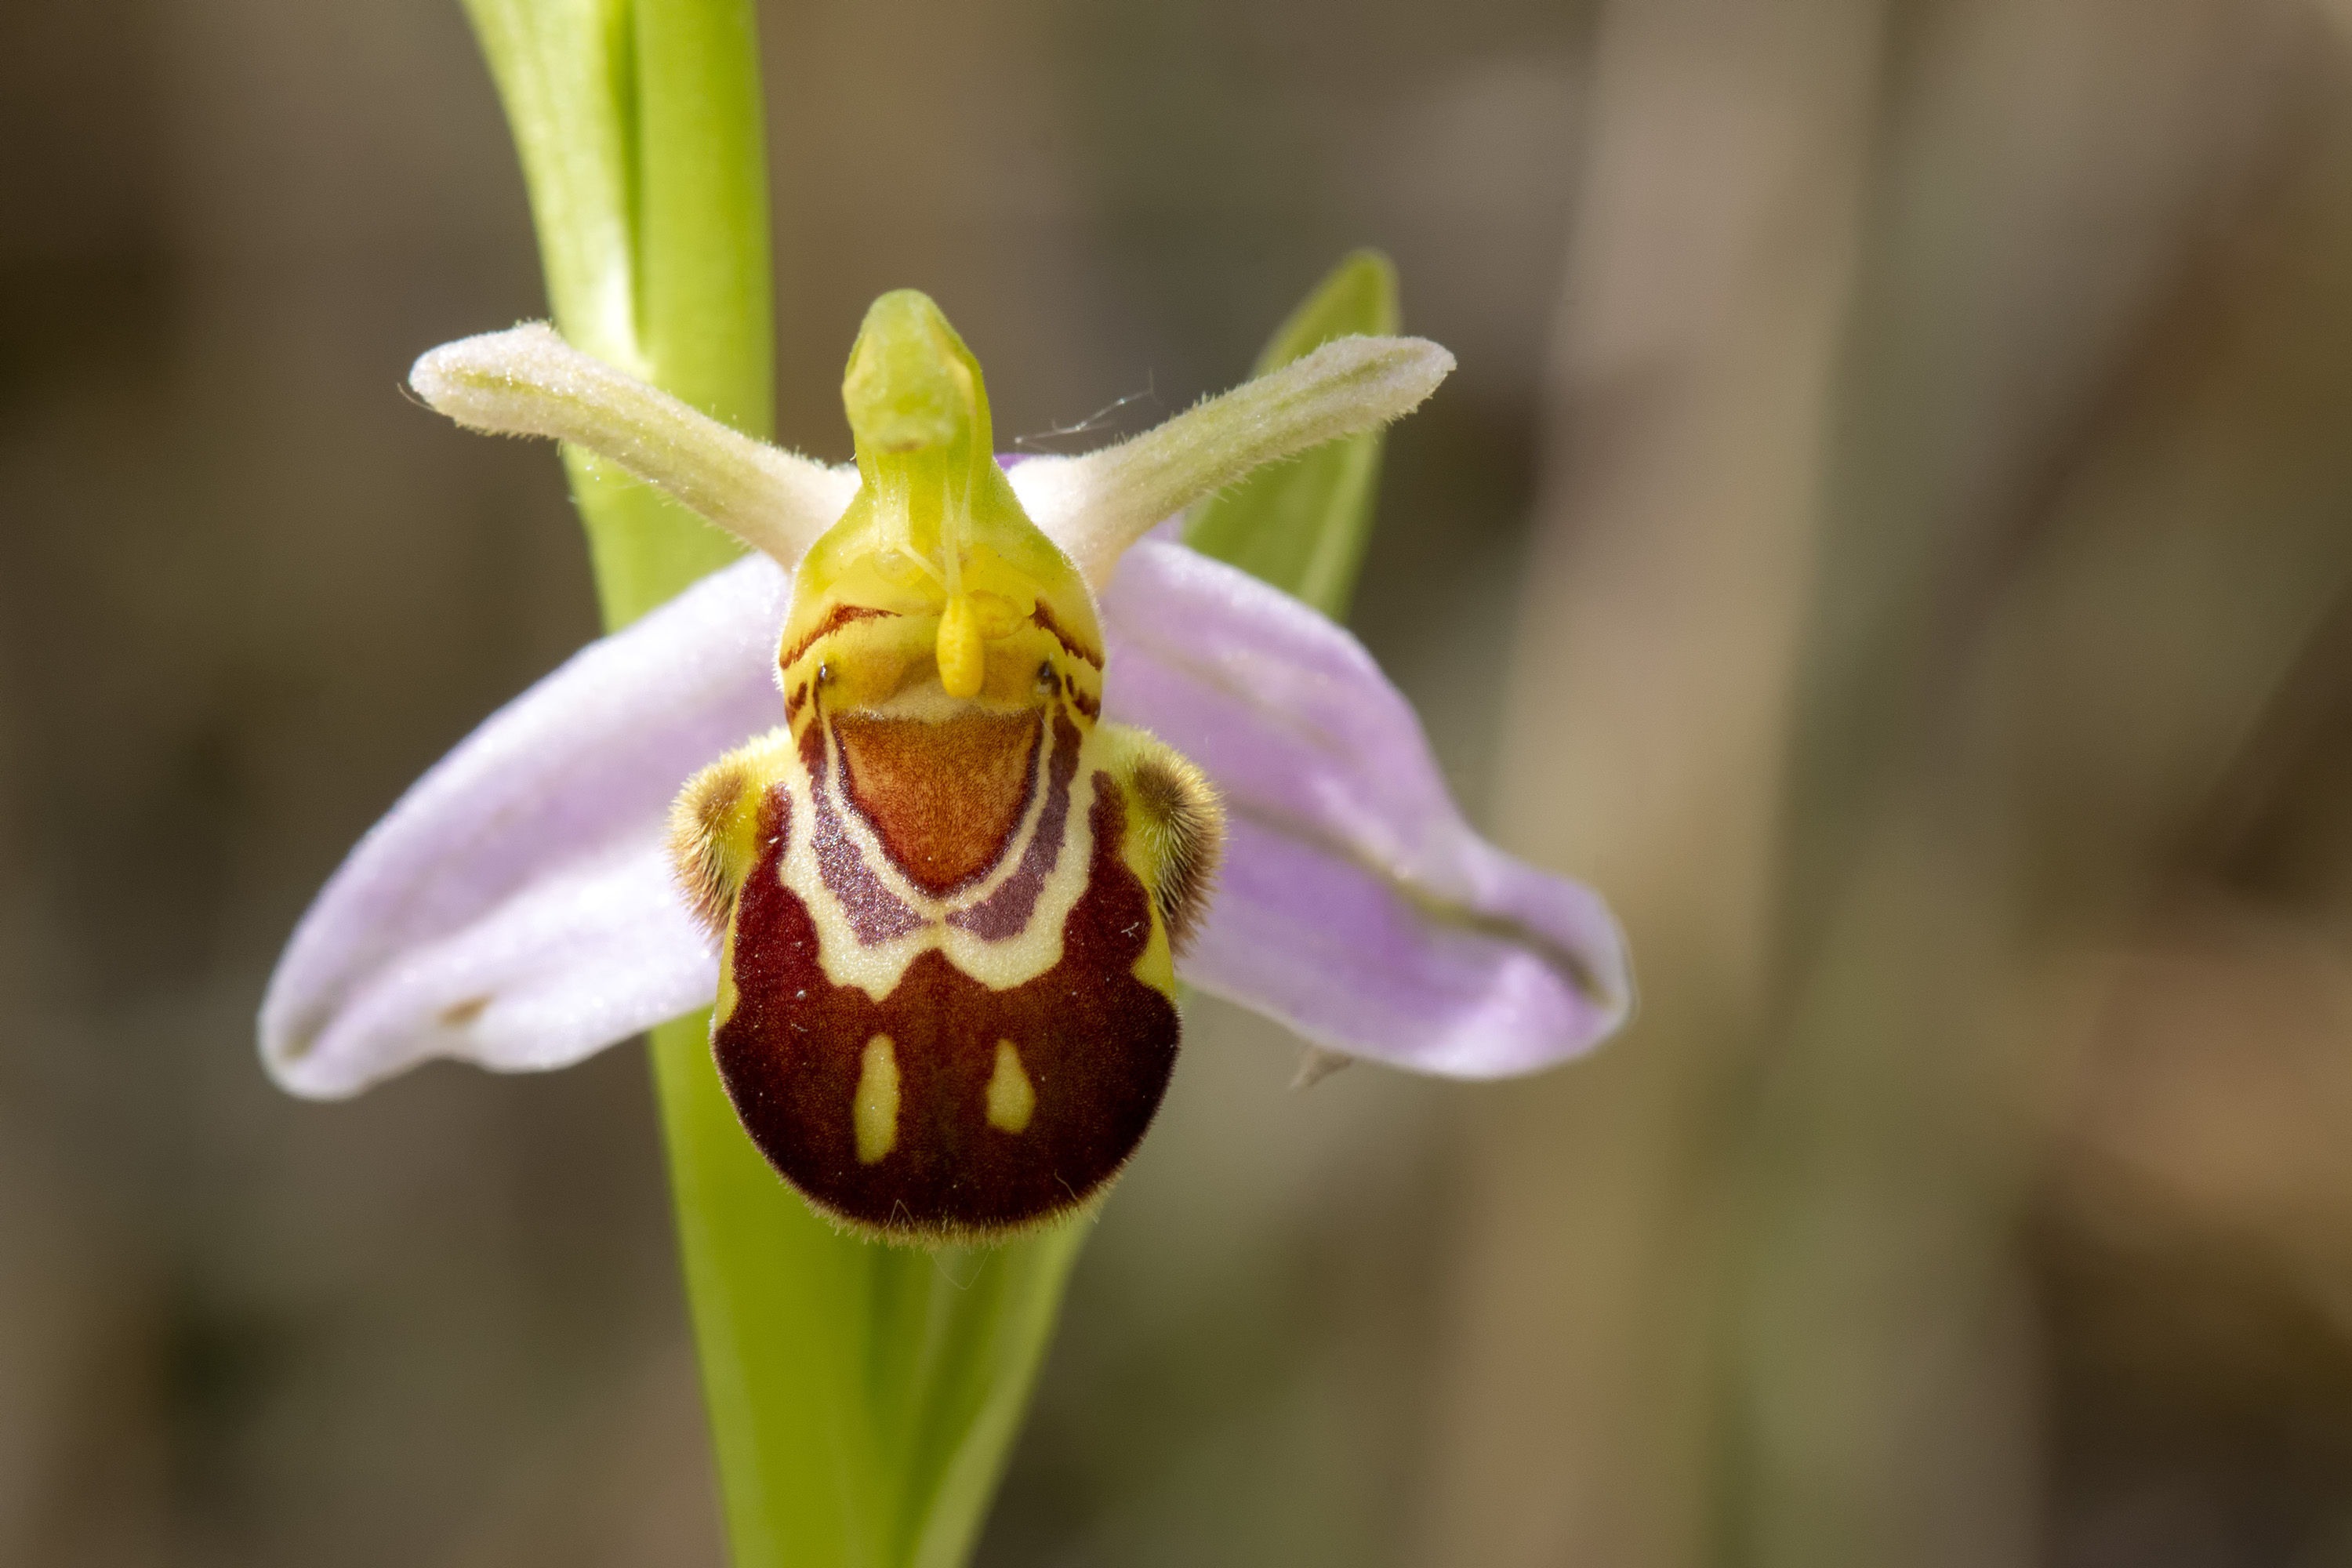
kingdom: Plantae
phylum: Tracheophyta
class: Liliopsida
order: Asparagales
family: Orchidaceae
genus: Ophrys
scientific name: Ophrys apifera
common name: Biblomst
